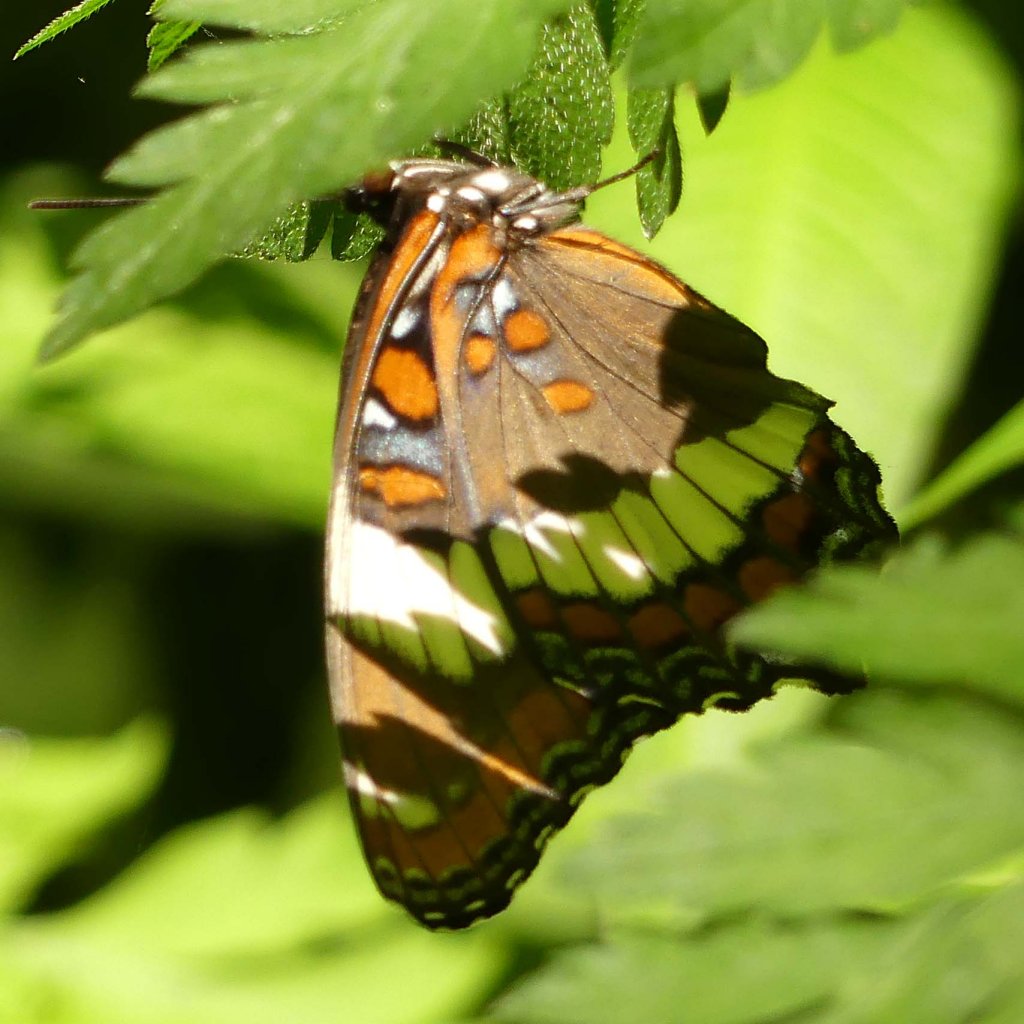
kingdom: Animalia
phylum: Arthropoda
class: Insecta
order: Lepidoptera
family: Nymphalidae
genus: Limenitis
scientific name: Limenitis arthemis
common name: Red-spotted Admiral
